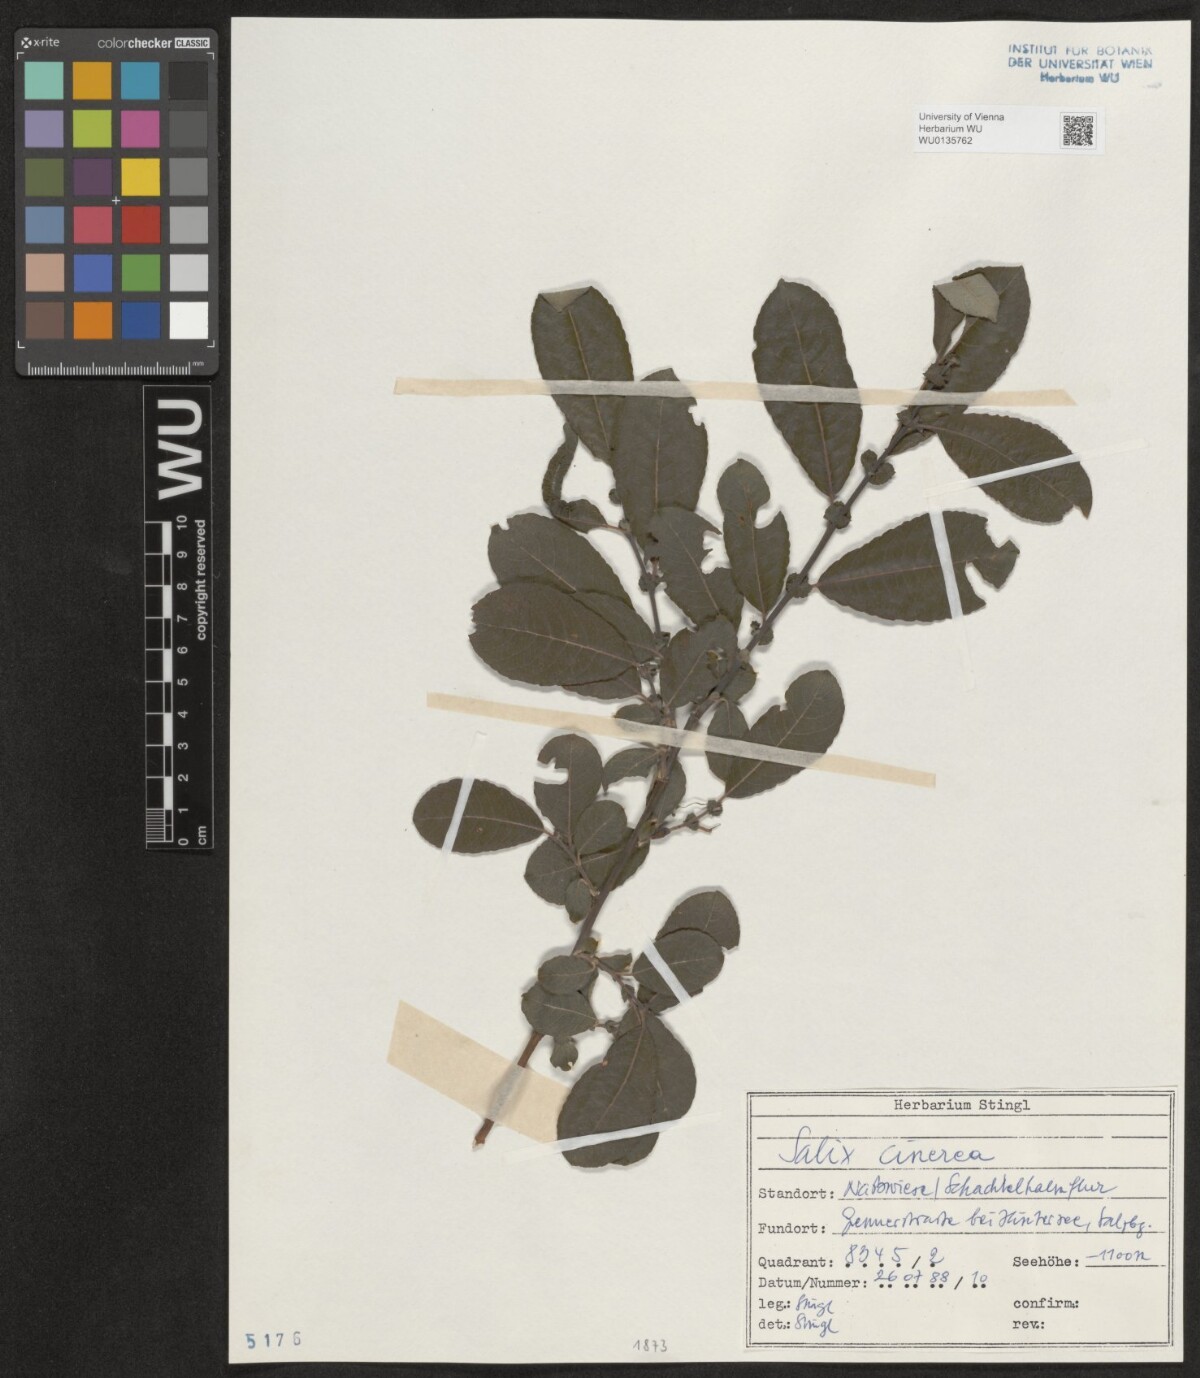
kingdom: Plantae
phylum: Tracheophyta
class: Magnoliopsida
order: Malpighiales
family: Salicaceae
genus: Salix
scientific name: Salix cinerea
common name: Common sallow
